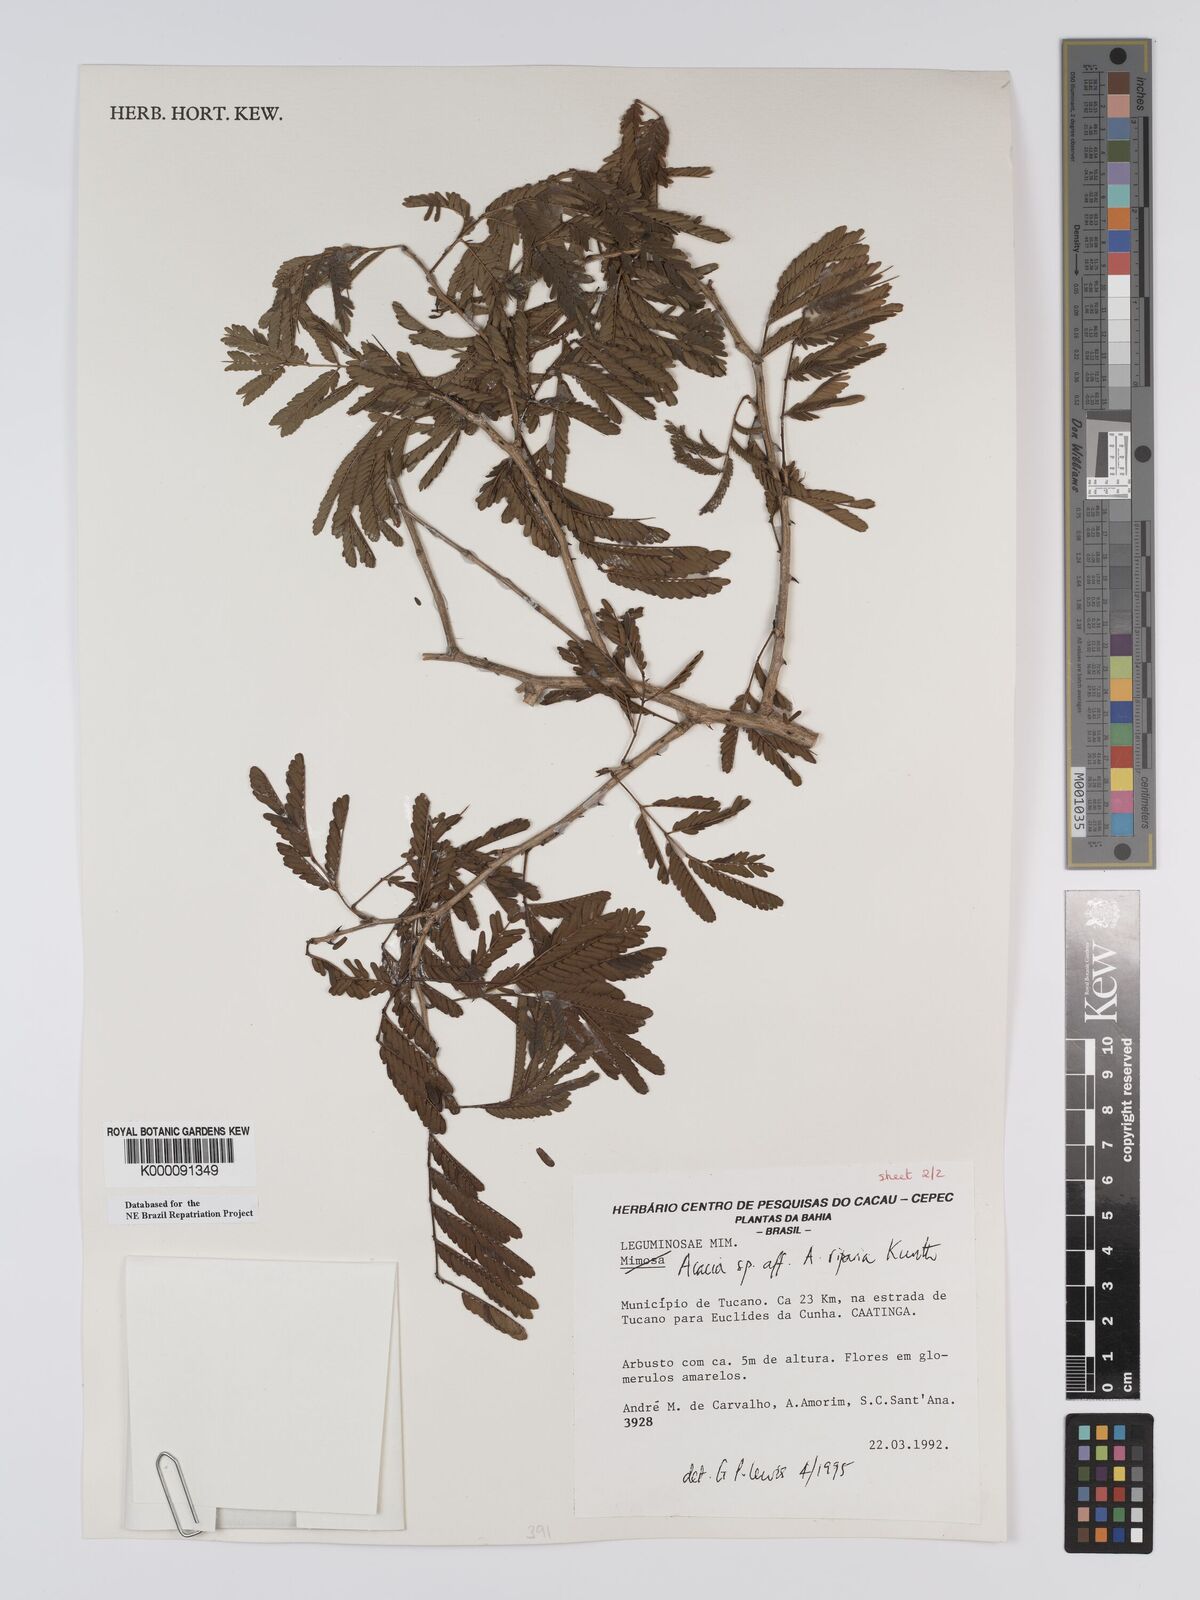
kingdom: Plantae
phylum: Tracheophyta
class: Magnoliopsida
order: Fabales
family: Fabaceae
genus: Senegalia
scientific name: Senegalia riparia
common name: Catch-and-keep
